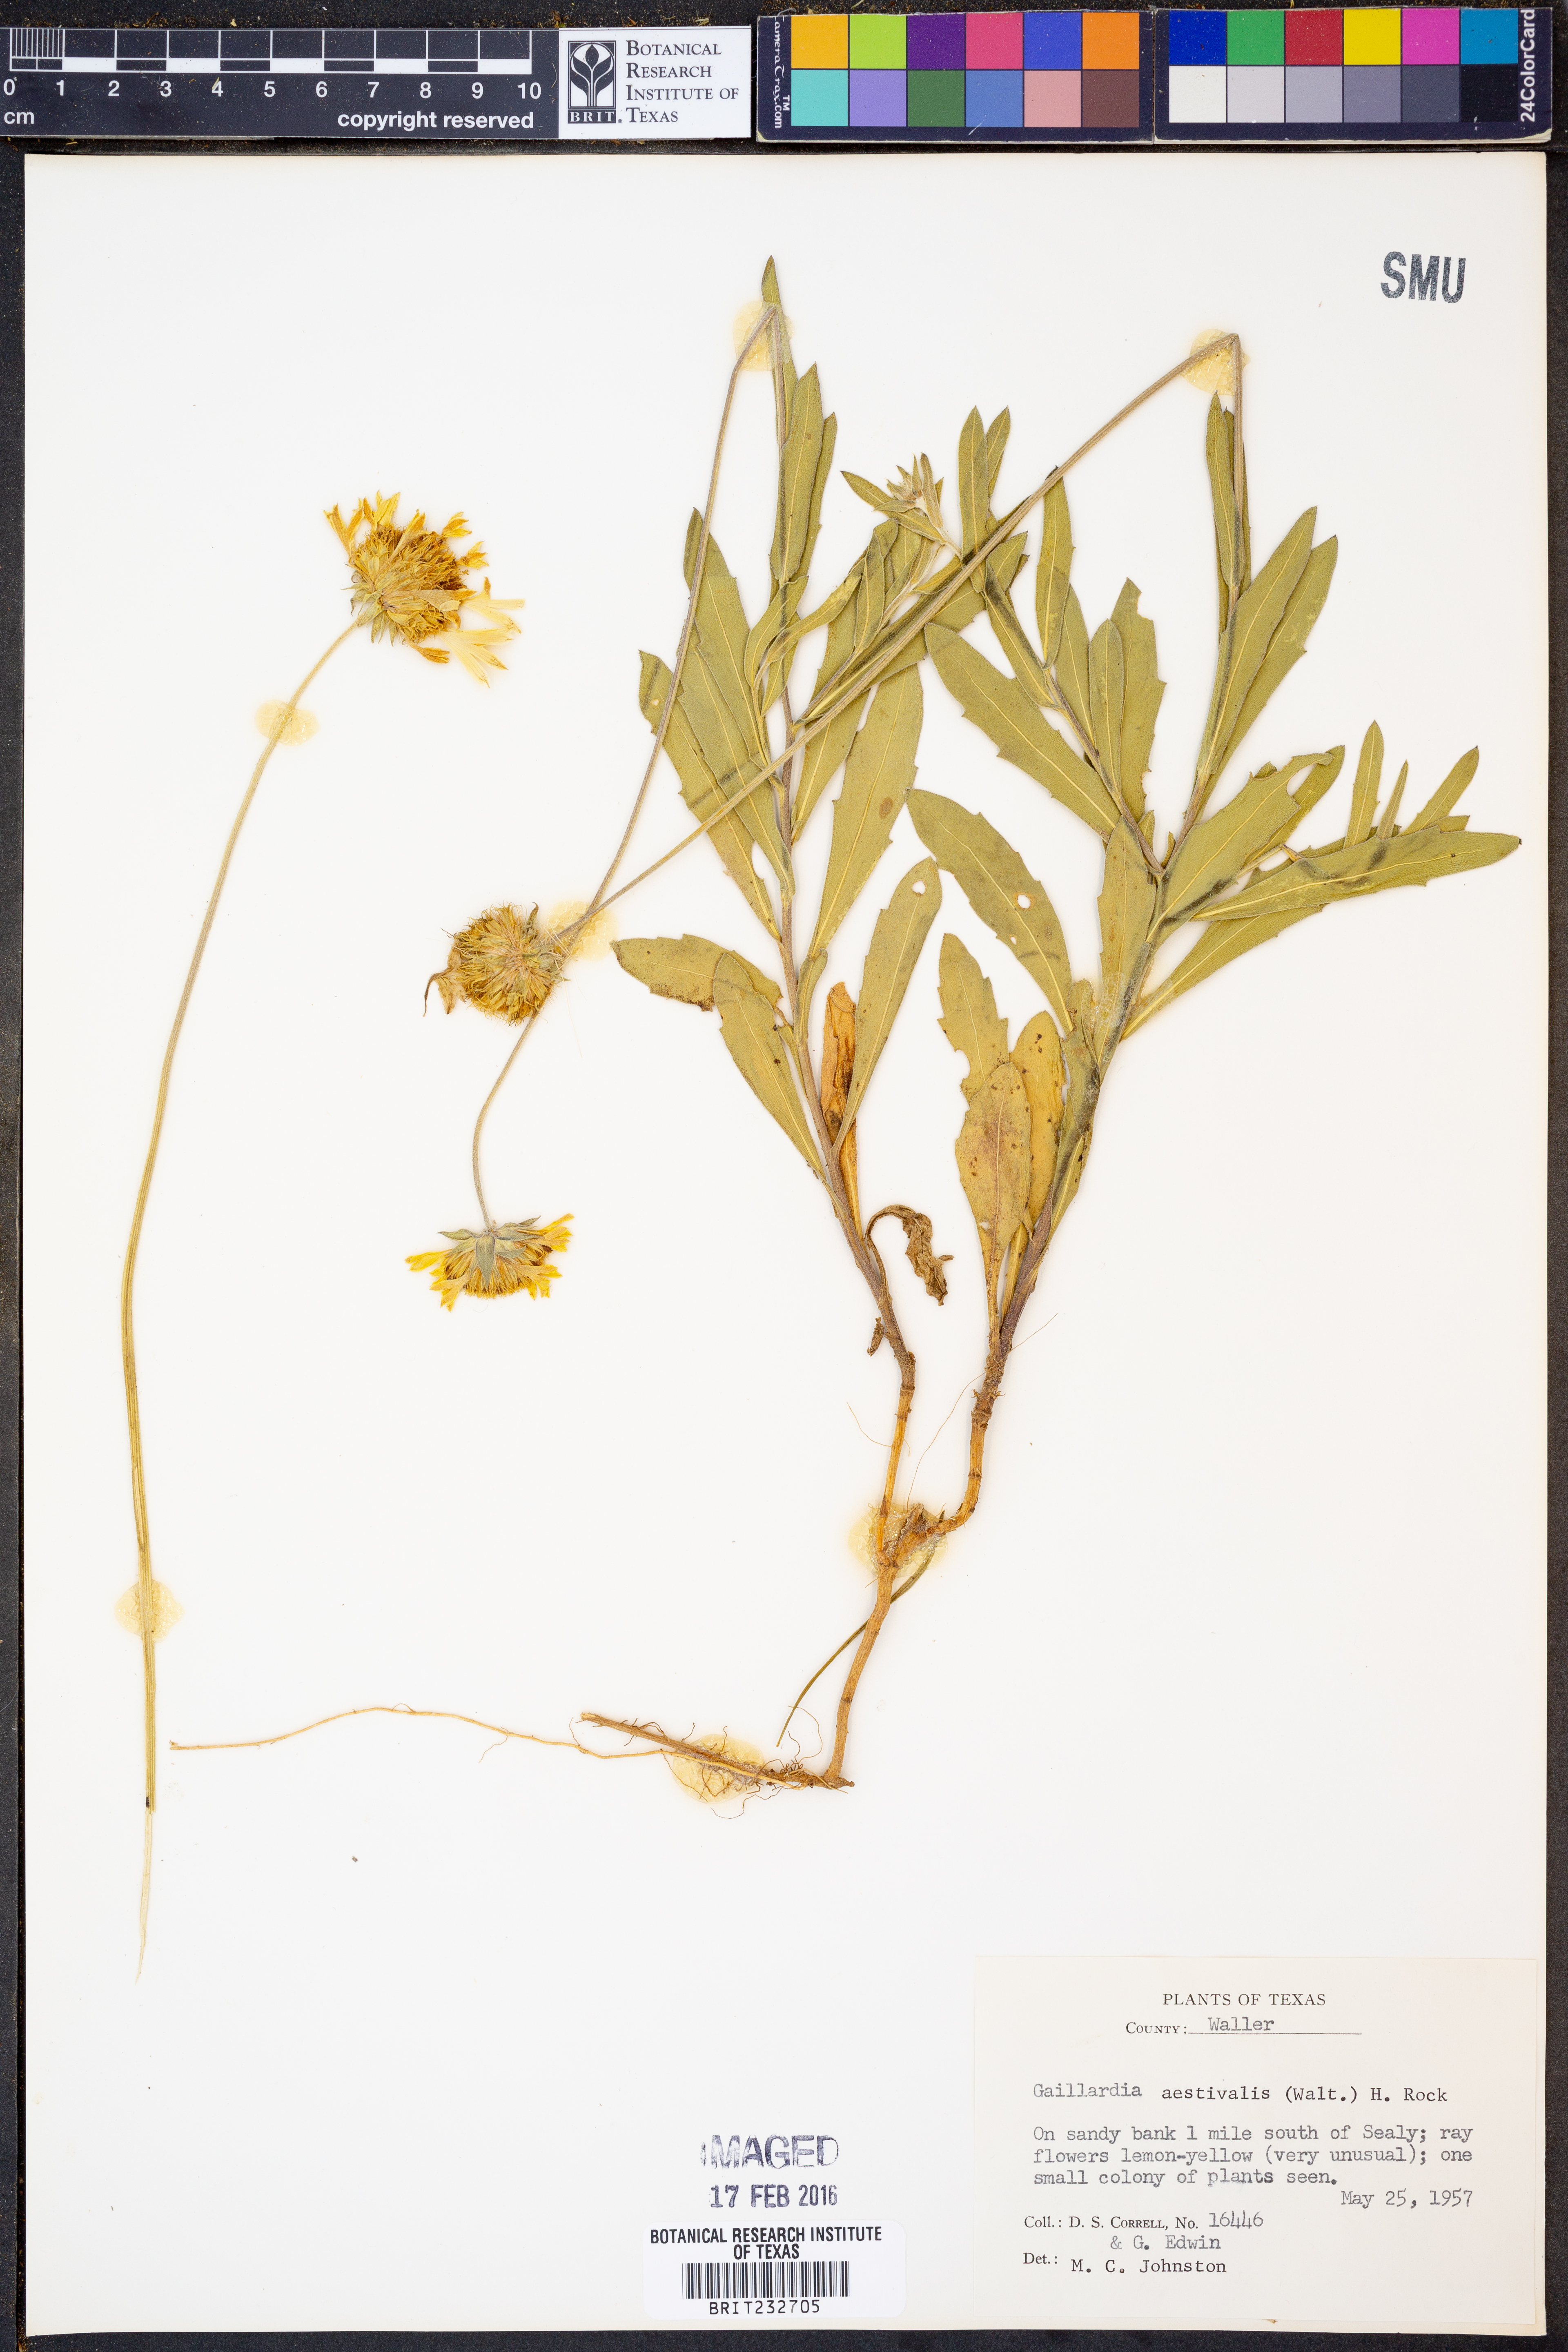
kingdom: Plantae
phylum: Tracheophyta
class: Magnoliopsida
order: Asterales
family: Asteraceae
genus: Gaillardia
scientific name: Gaillardia aestivalis
